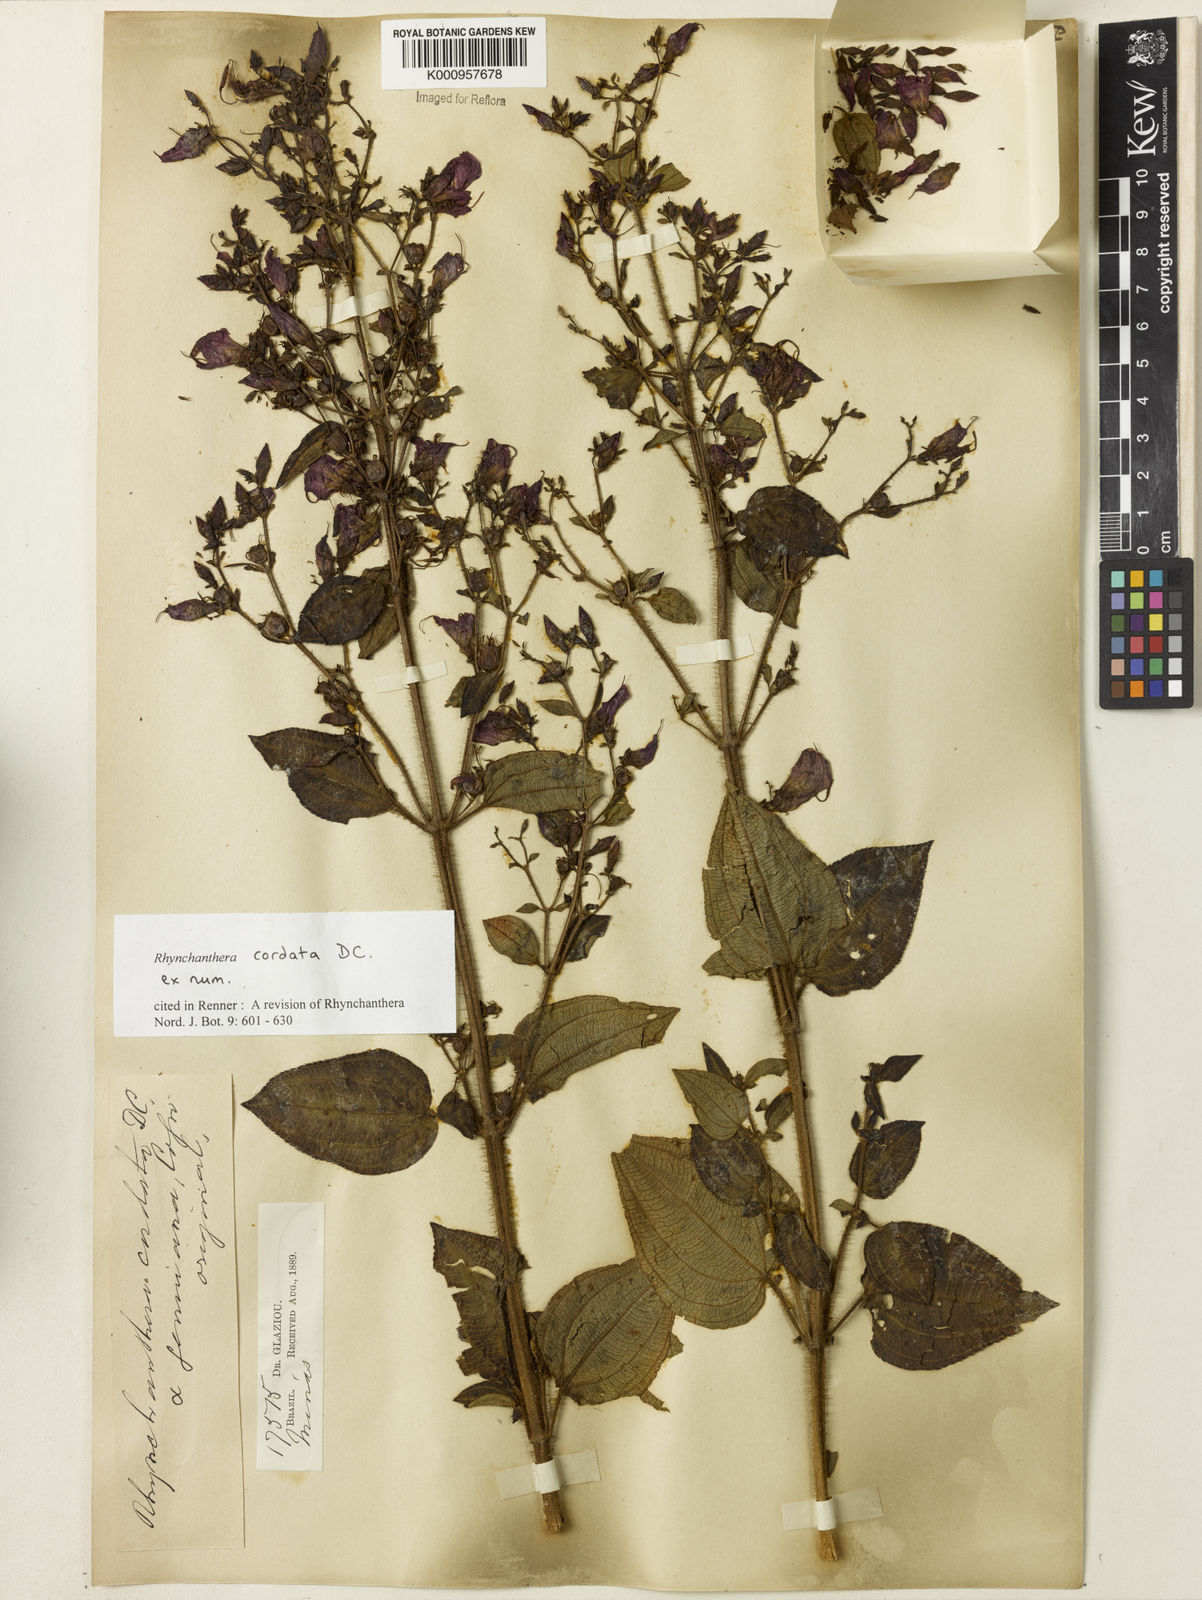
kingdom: Plantae
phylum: Tracheophyta
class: Magnoliopsida
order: Myrtales
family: Melastomataceae
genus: Rhynchanthera
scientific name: Rhynchanthera cordata
